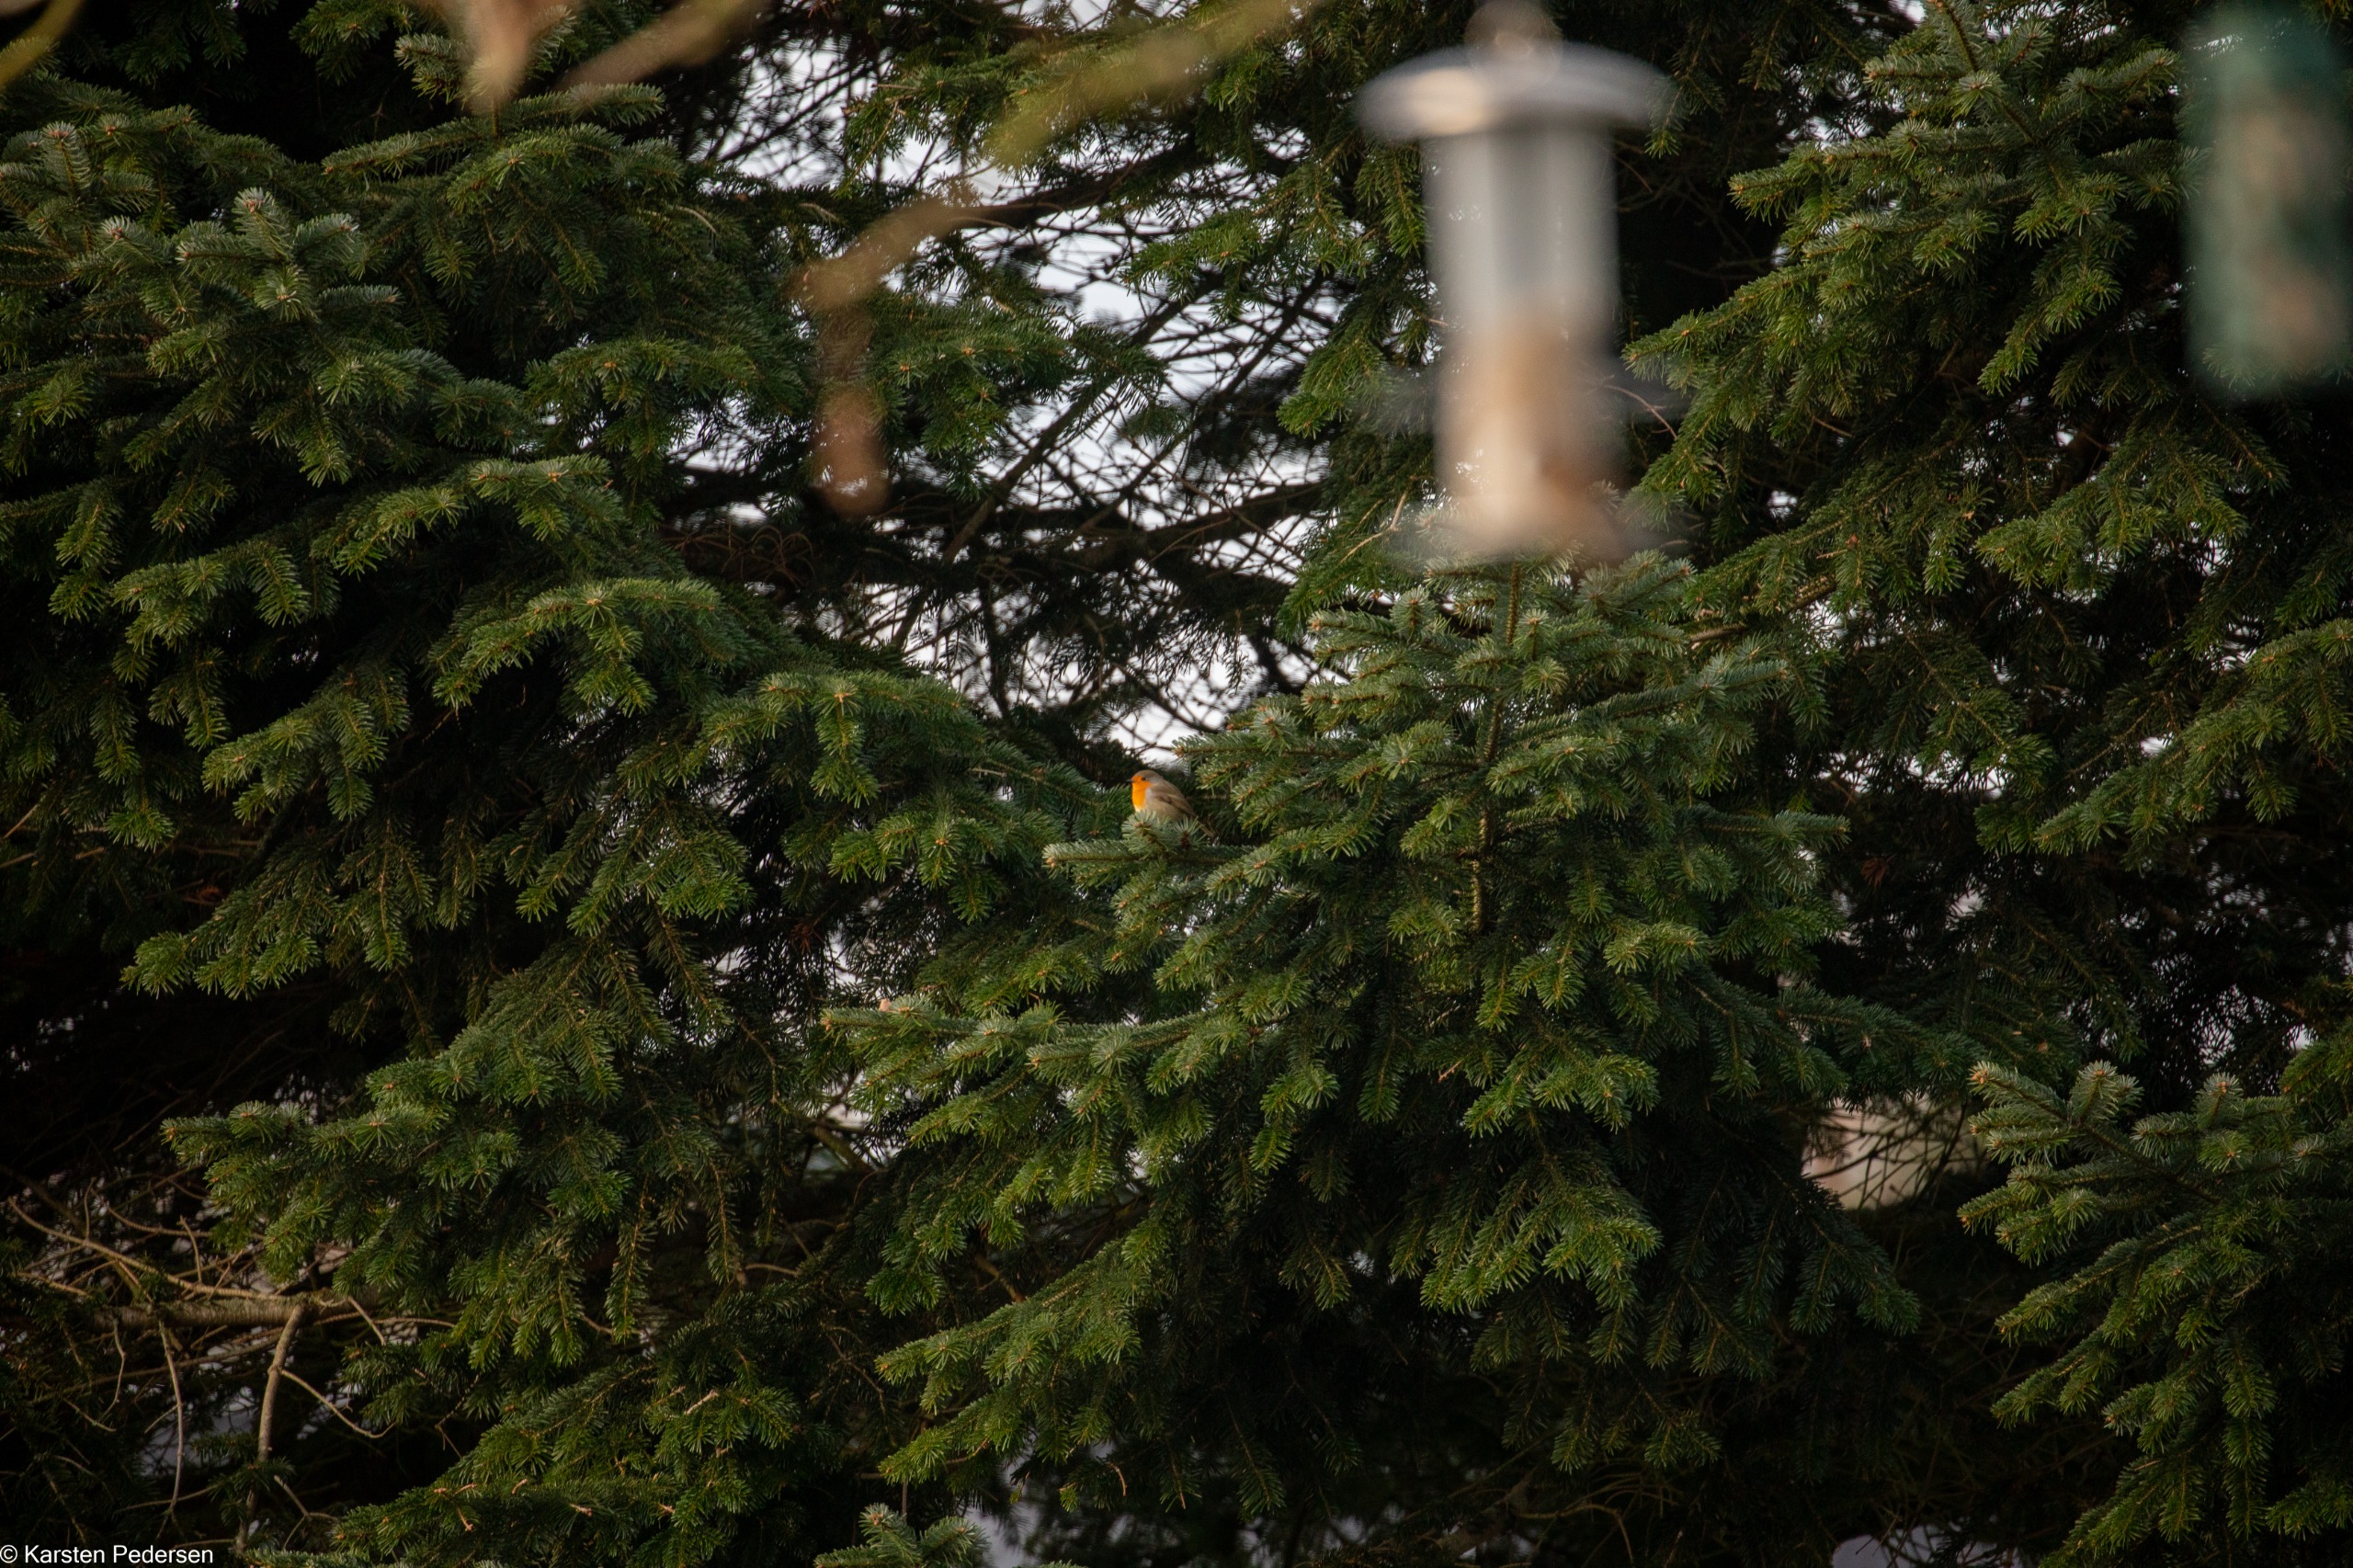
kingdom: Animalia
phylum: Chordata
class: Aves
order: Passeriformes
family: Muscicapidae
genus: Erithacus
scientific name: Erithacus rubecula
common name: Rødhals/rødkælk
